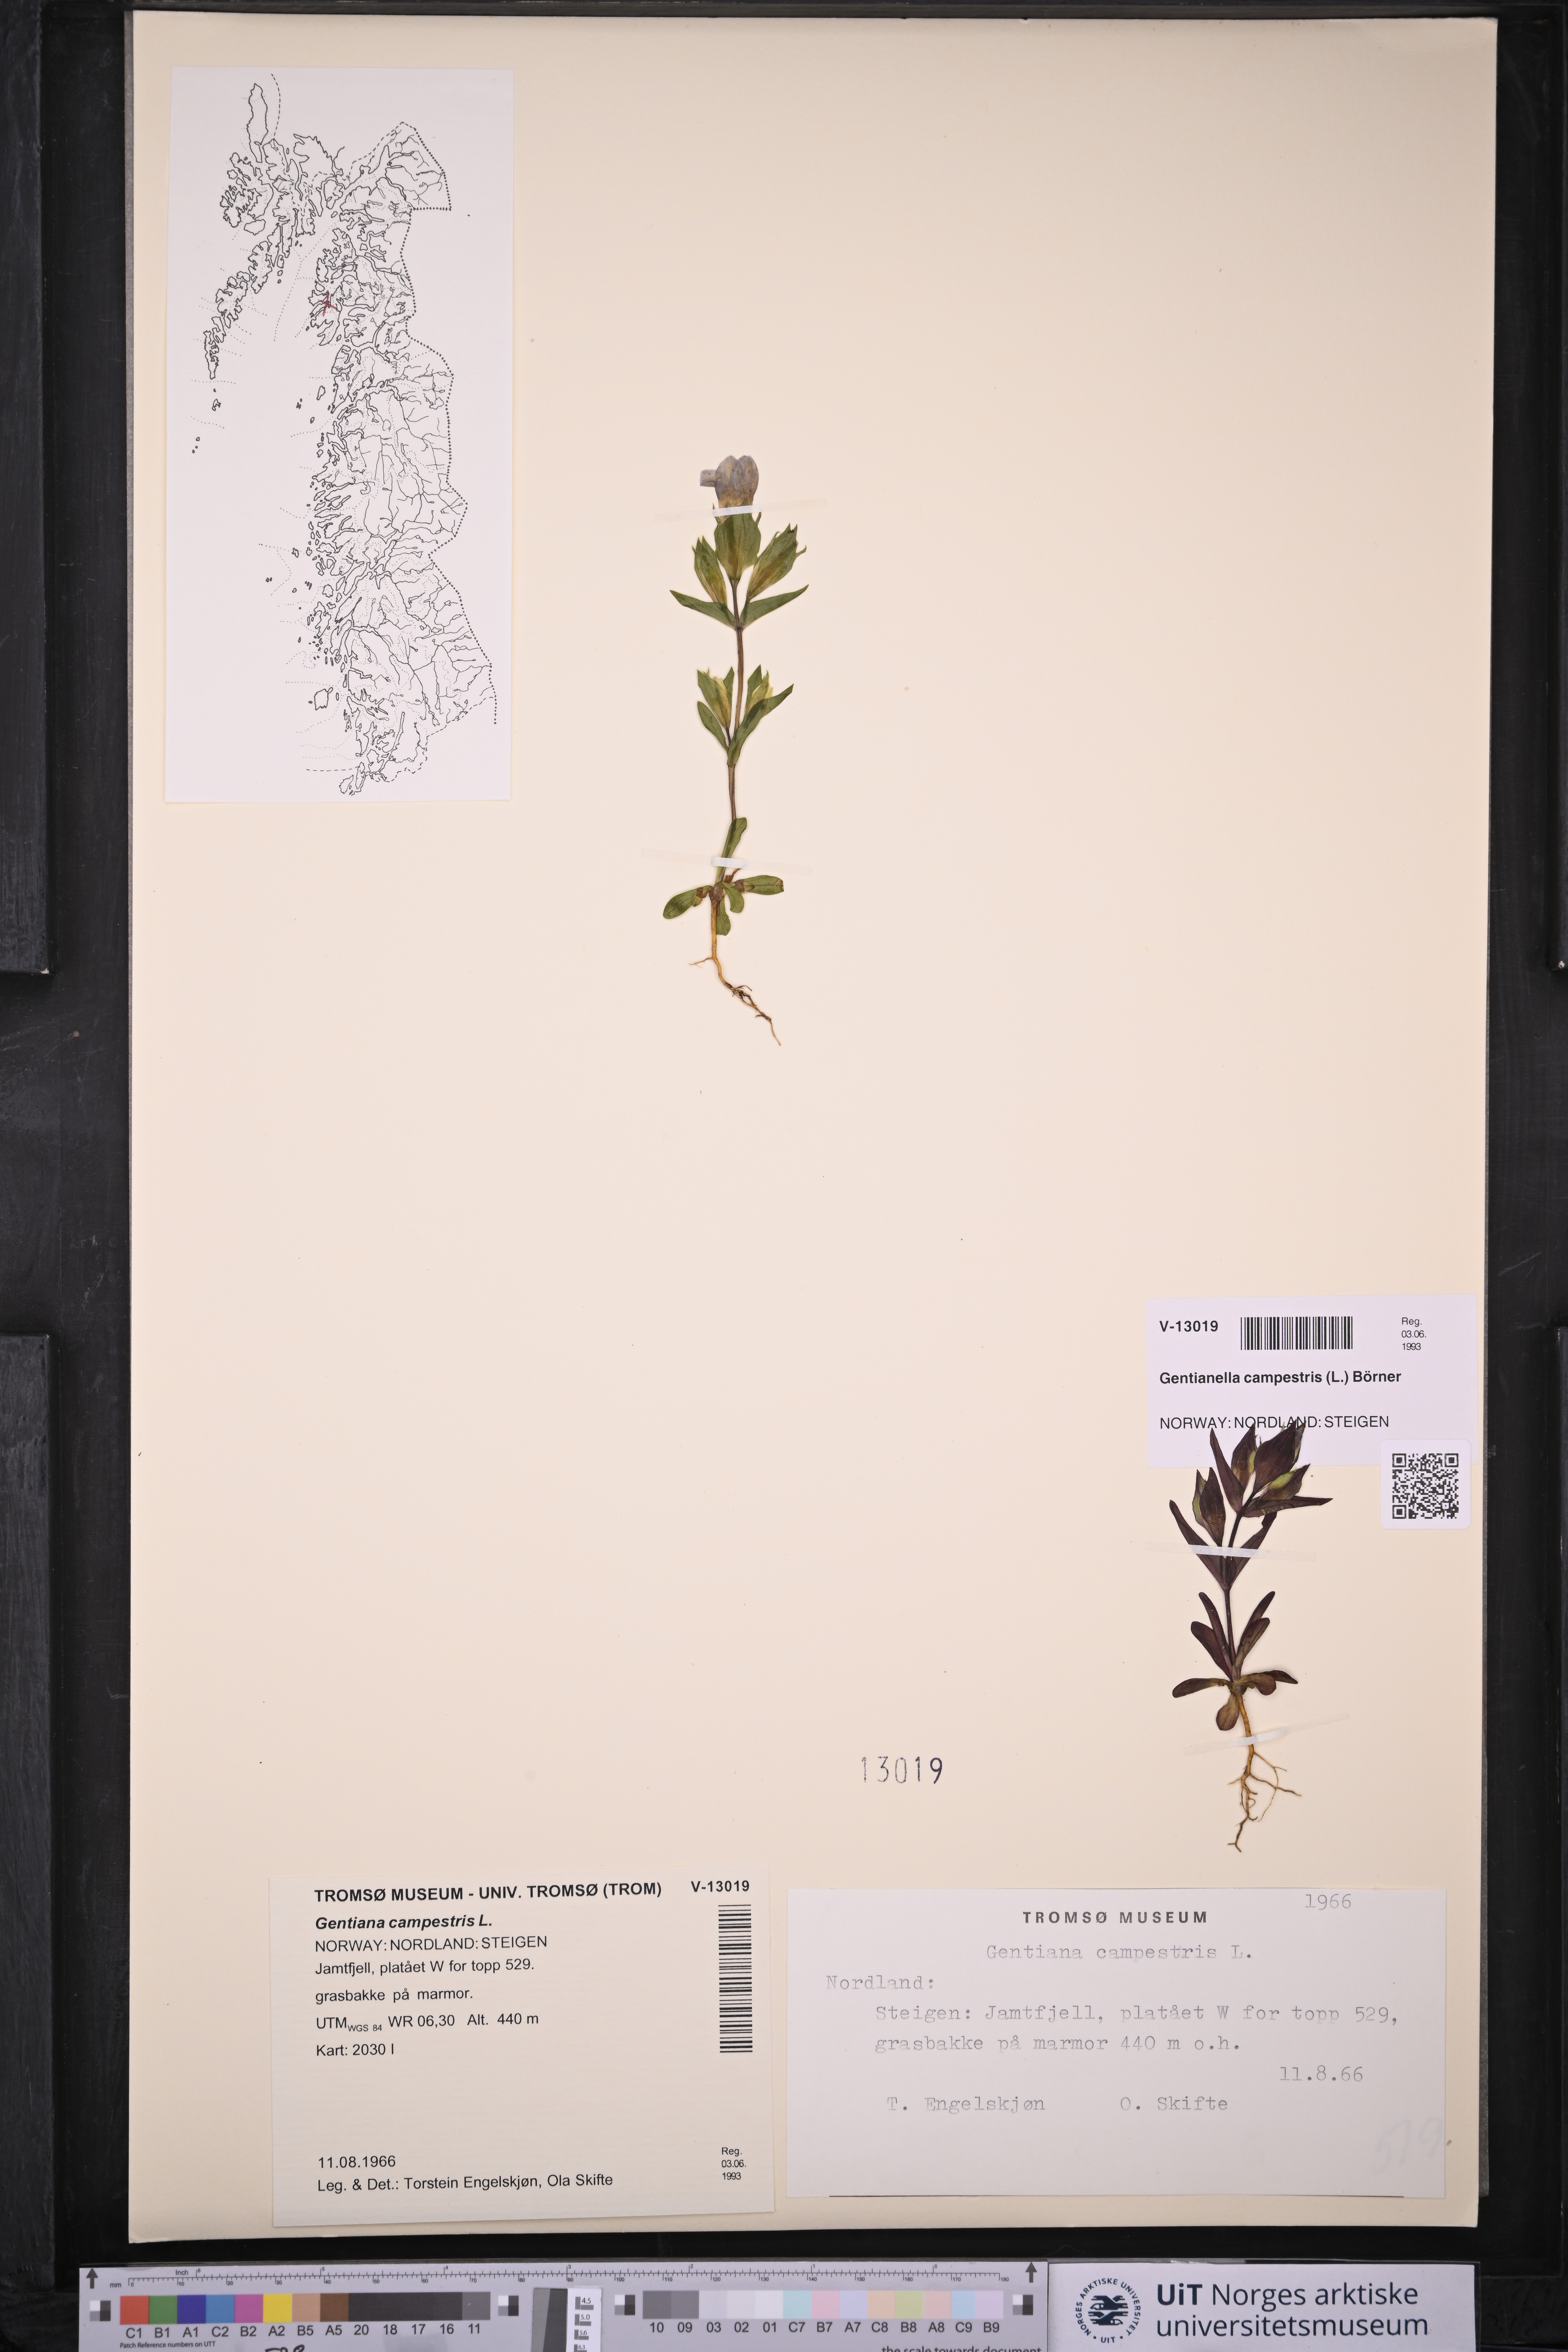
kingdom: Plantae
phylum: Tracheophyta
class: Magnoliopsida
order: Gentianales
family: Gentianaceae
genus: Gentianella
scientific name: Gentianella campestris
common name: Field gentian
